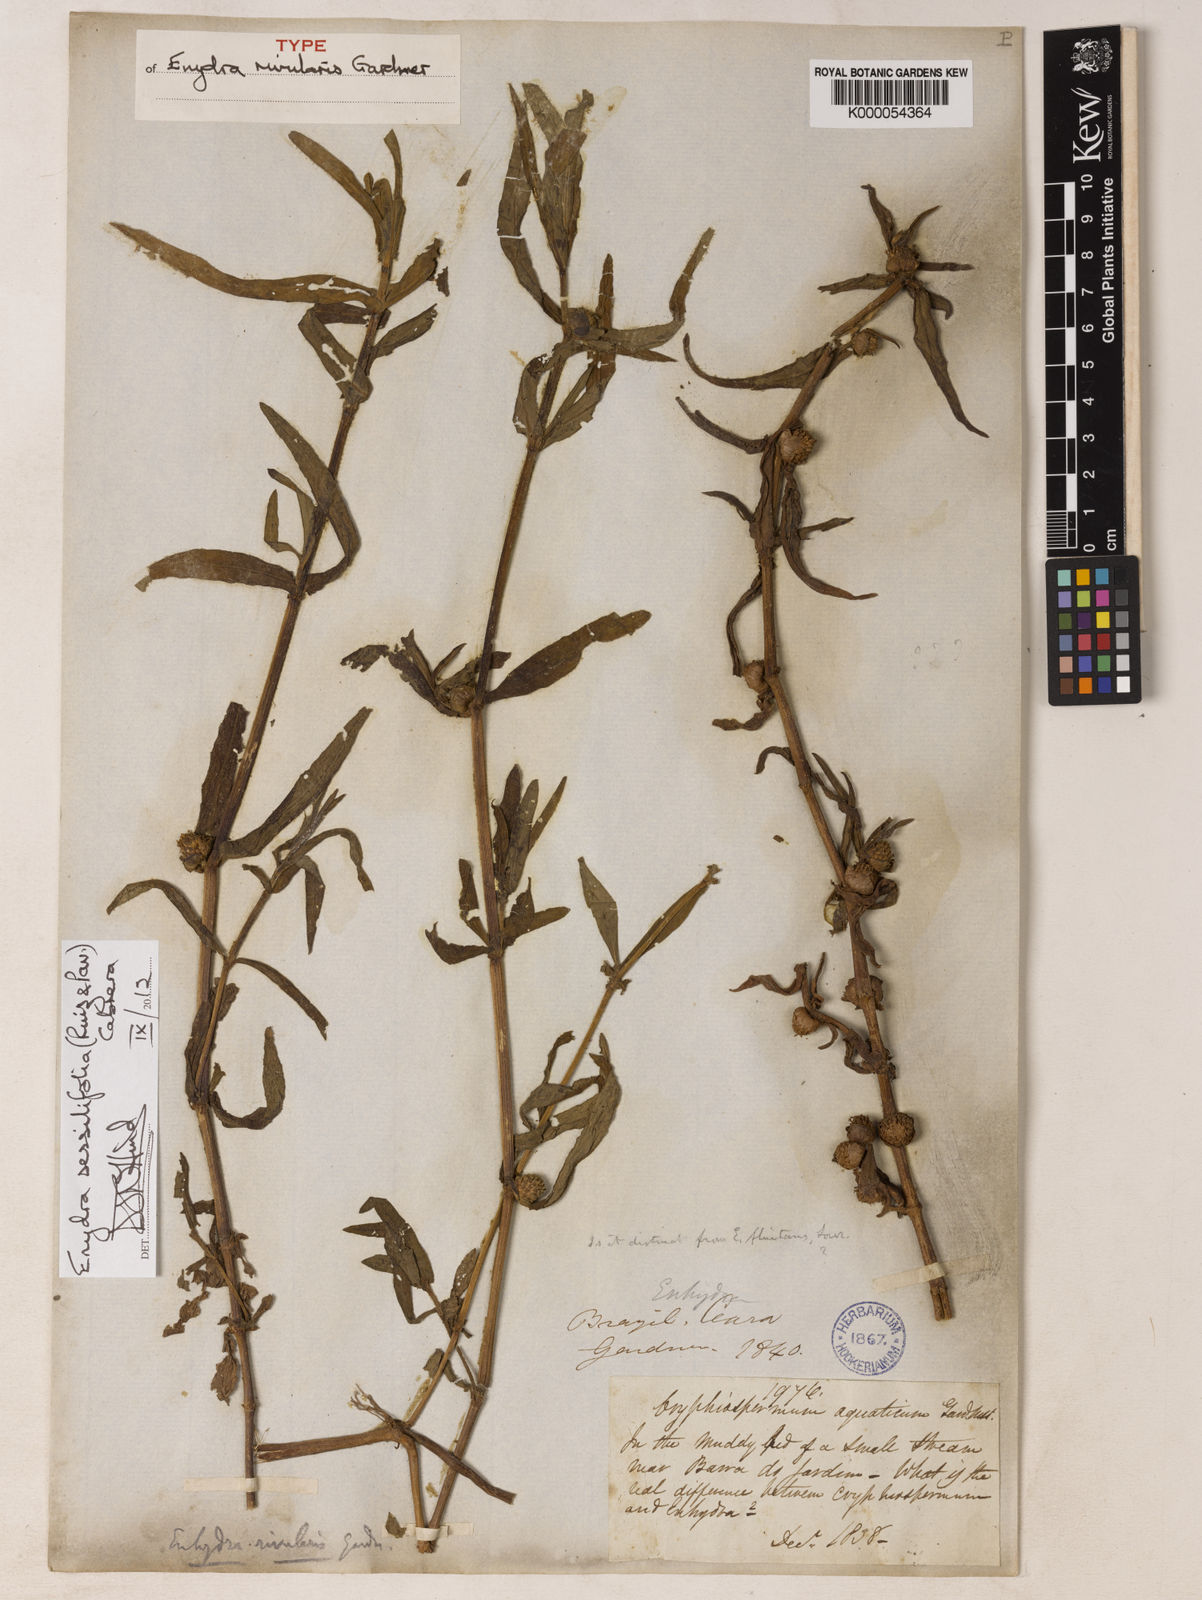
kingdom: Plantae
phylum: Tracheophyta
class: Magnoliopsida
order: Asterales
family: Asteraceae
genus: Enydra
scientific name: Enydra sessilifolia
